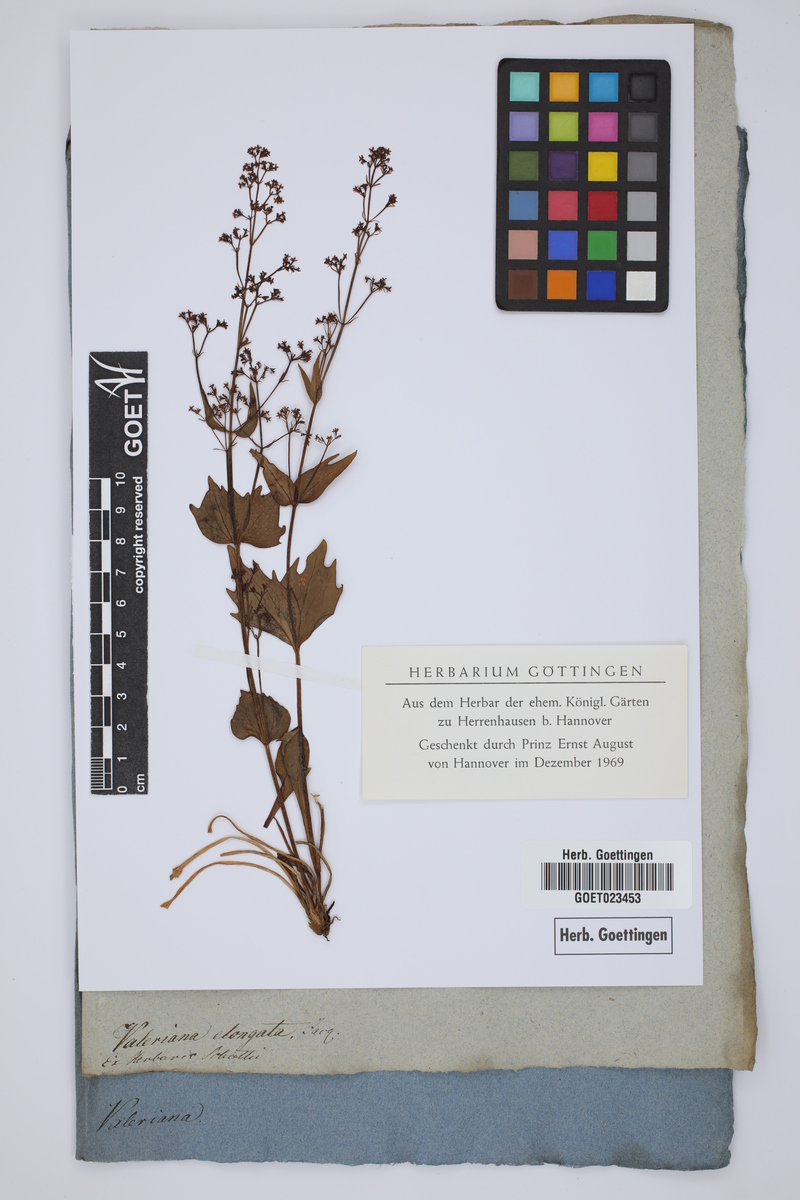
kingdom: Plantae
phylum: Tracheophyta
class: Magnoliopsida
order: Dipsacales
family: Caprifoliaceae
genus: Valeriana
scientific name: Valeriana elongata
